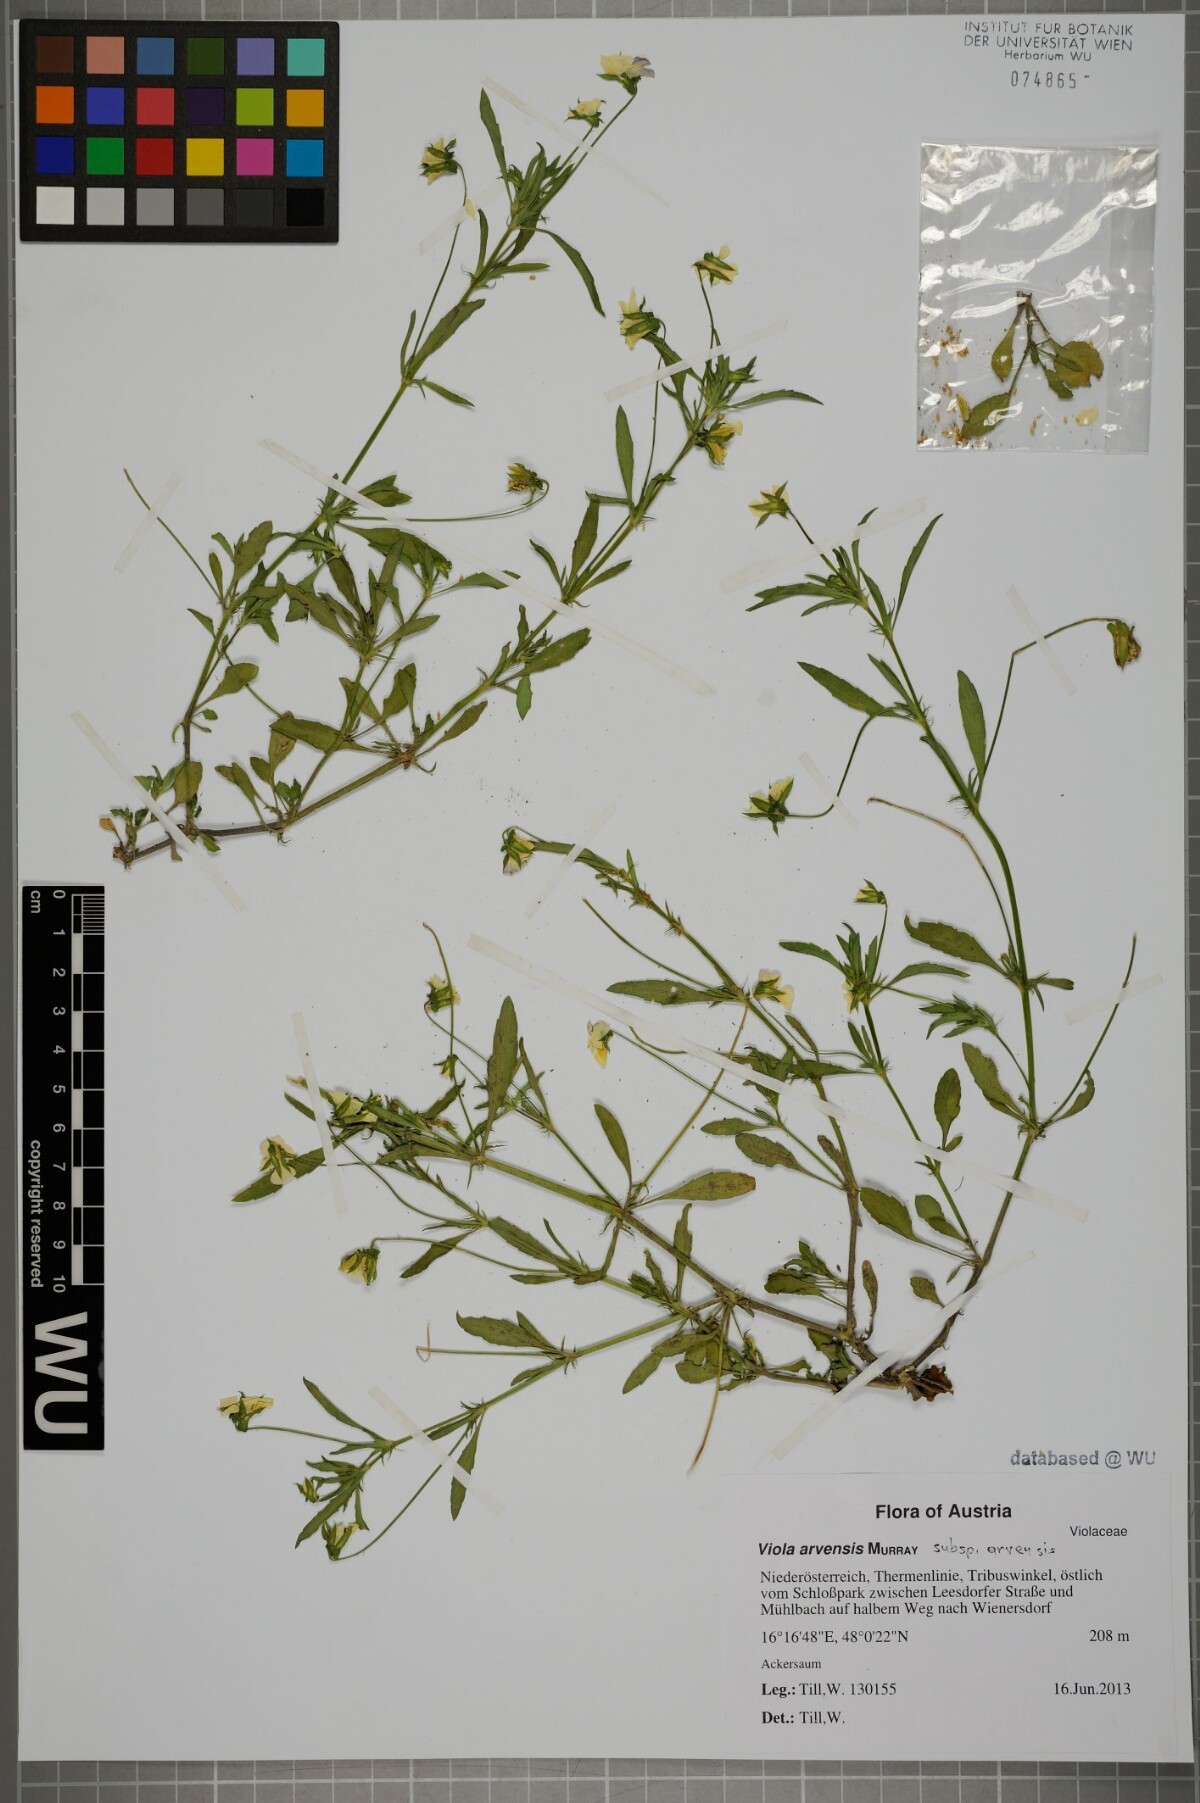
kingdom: Plantae
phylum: Tracheophyta
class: Magnoliopsida
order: Malpighiales
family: Violaceae
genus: Viola
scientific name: Viola arvensis
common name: Field pansy
